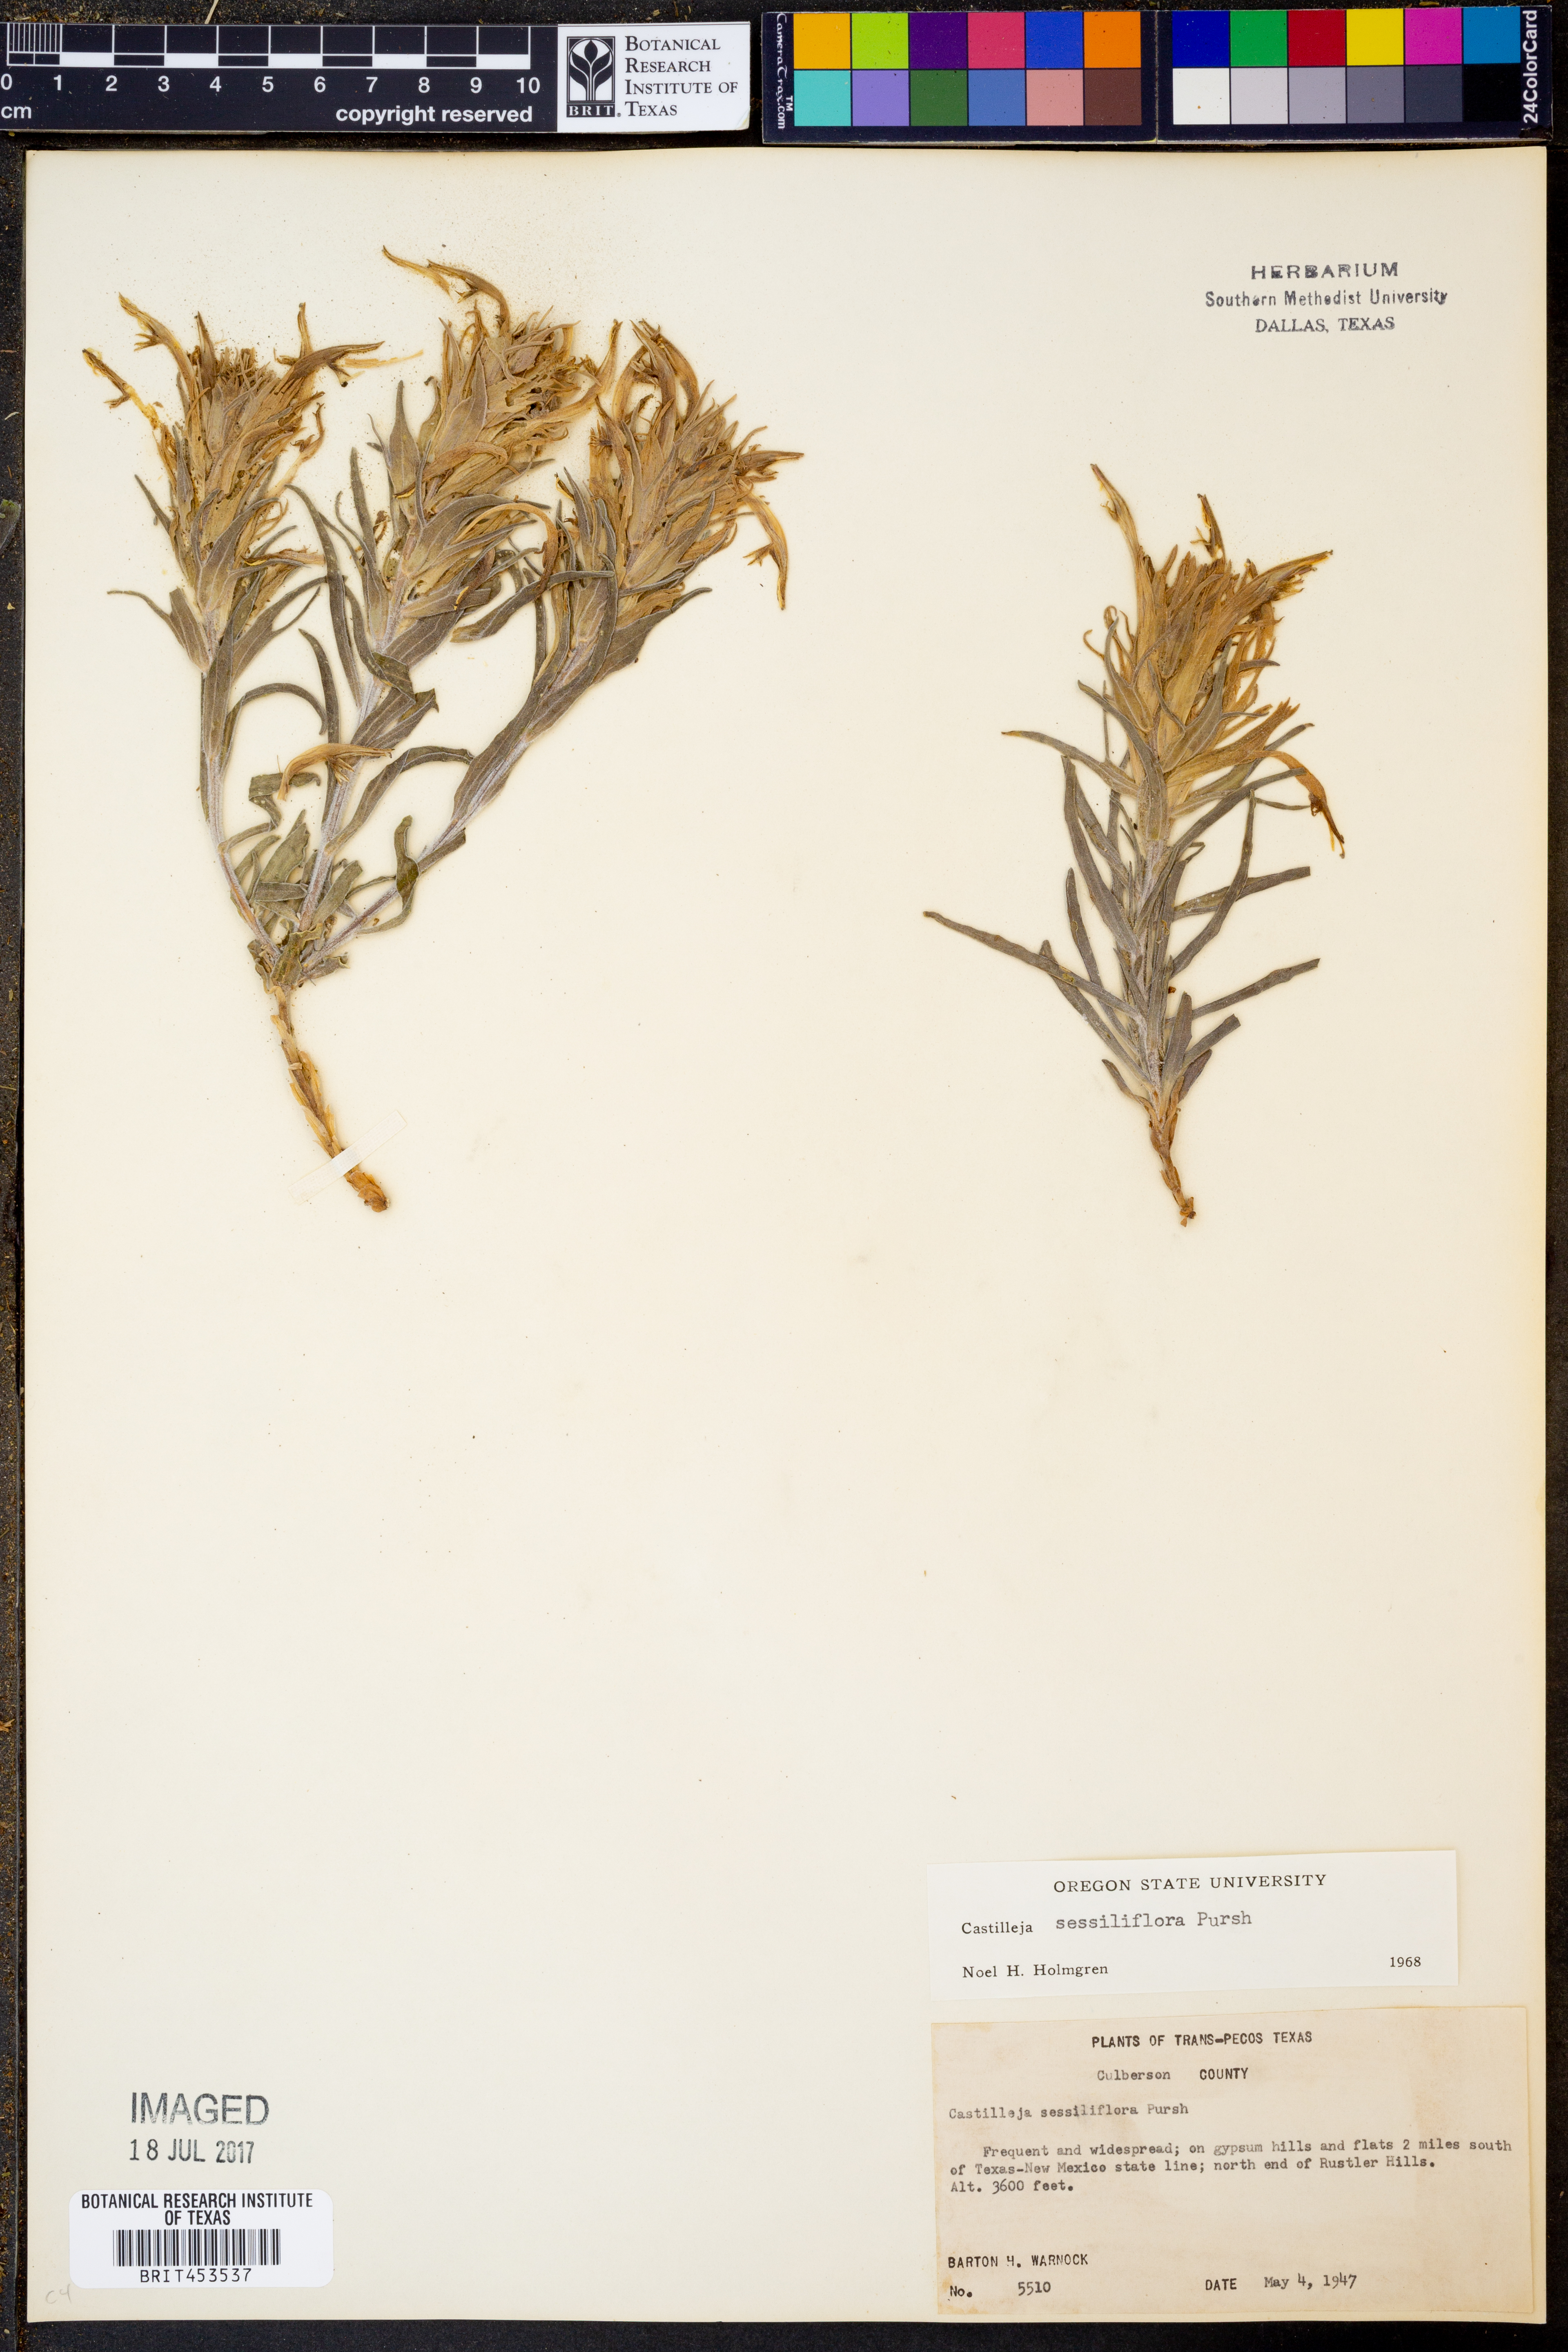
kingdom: Plantae
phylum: Tracheophyta
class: Magnoliopsida
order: Lamiales
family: Orobanchaceae
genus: Castilleja
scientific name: Castilleja sessiliflora
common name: Downy paintbrush
